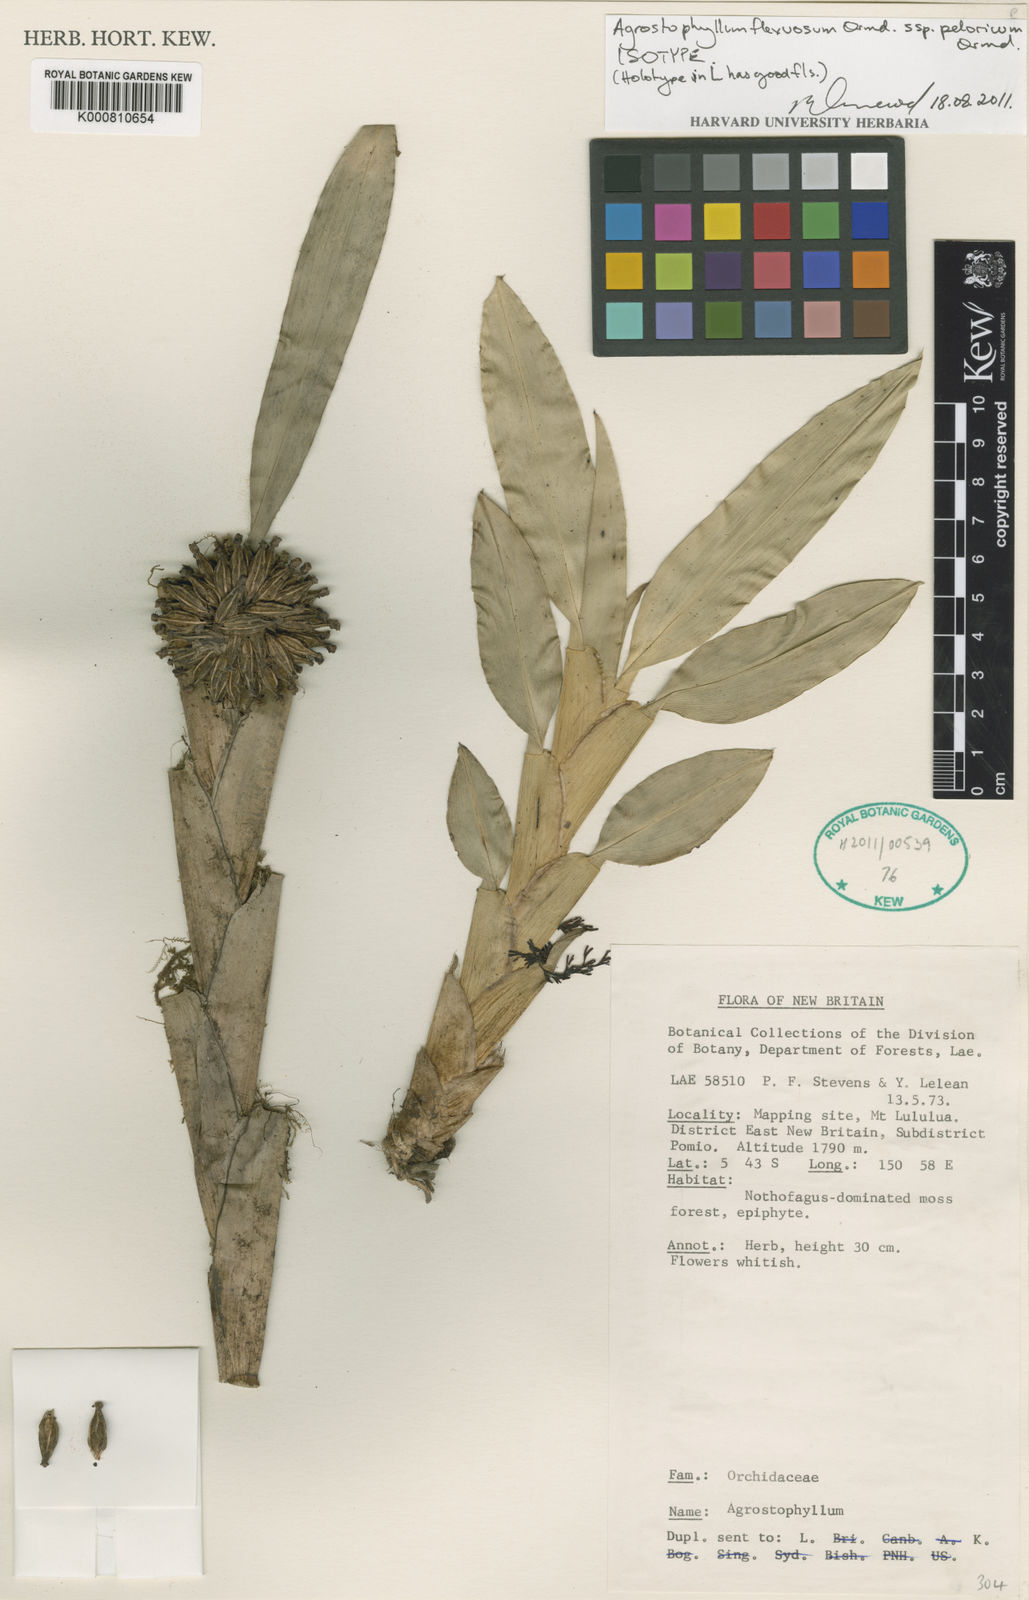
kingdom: Plantae
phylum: Tracheophyta
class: Liliopsida
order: Asparagales
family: Orchidaceae
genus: Agrostophyllum
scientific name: Agrostophyllum flexuosum
